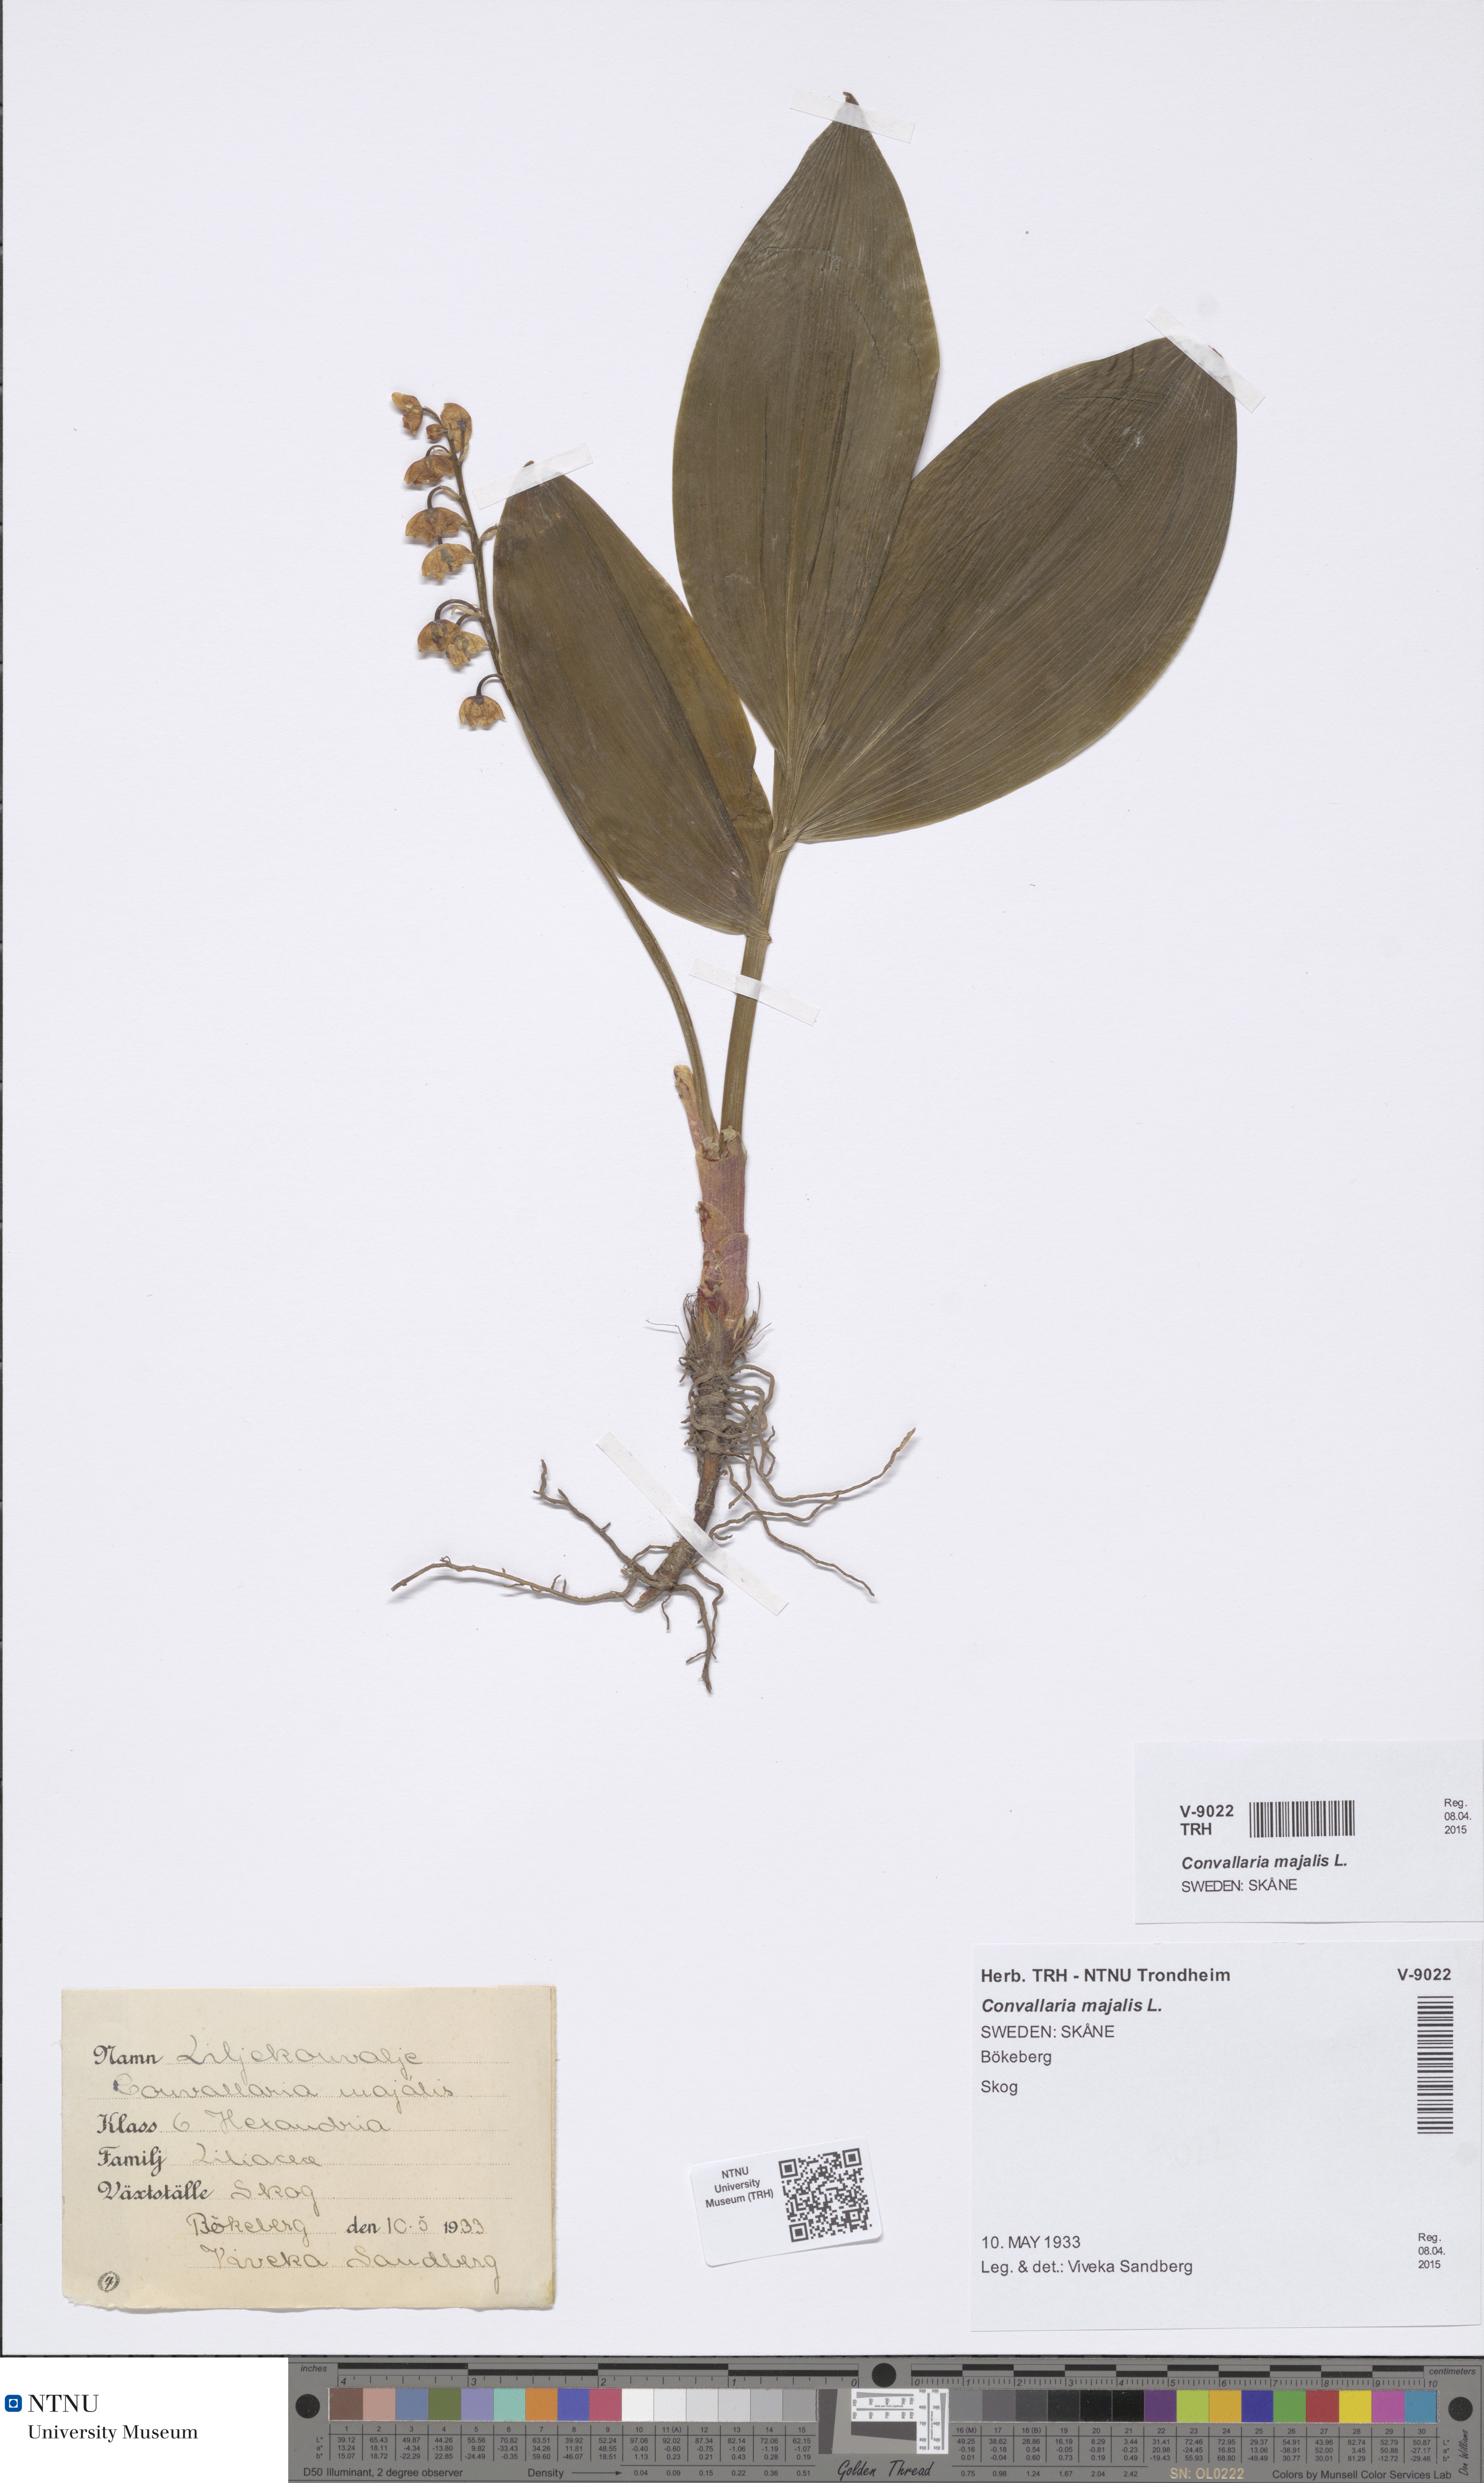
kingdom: Plantae
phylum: Tracheophyta
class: Liliopsida
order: Asparagales
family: Asparagaceae
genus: Convallaria
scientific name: Convallaria majalis
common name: Lily-of-the-valley
